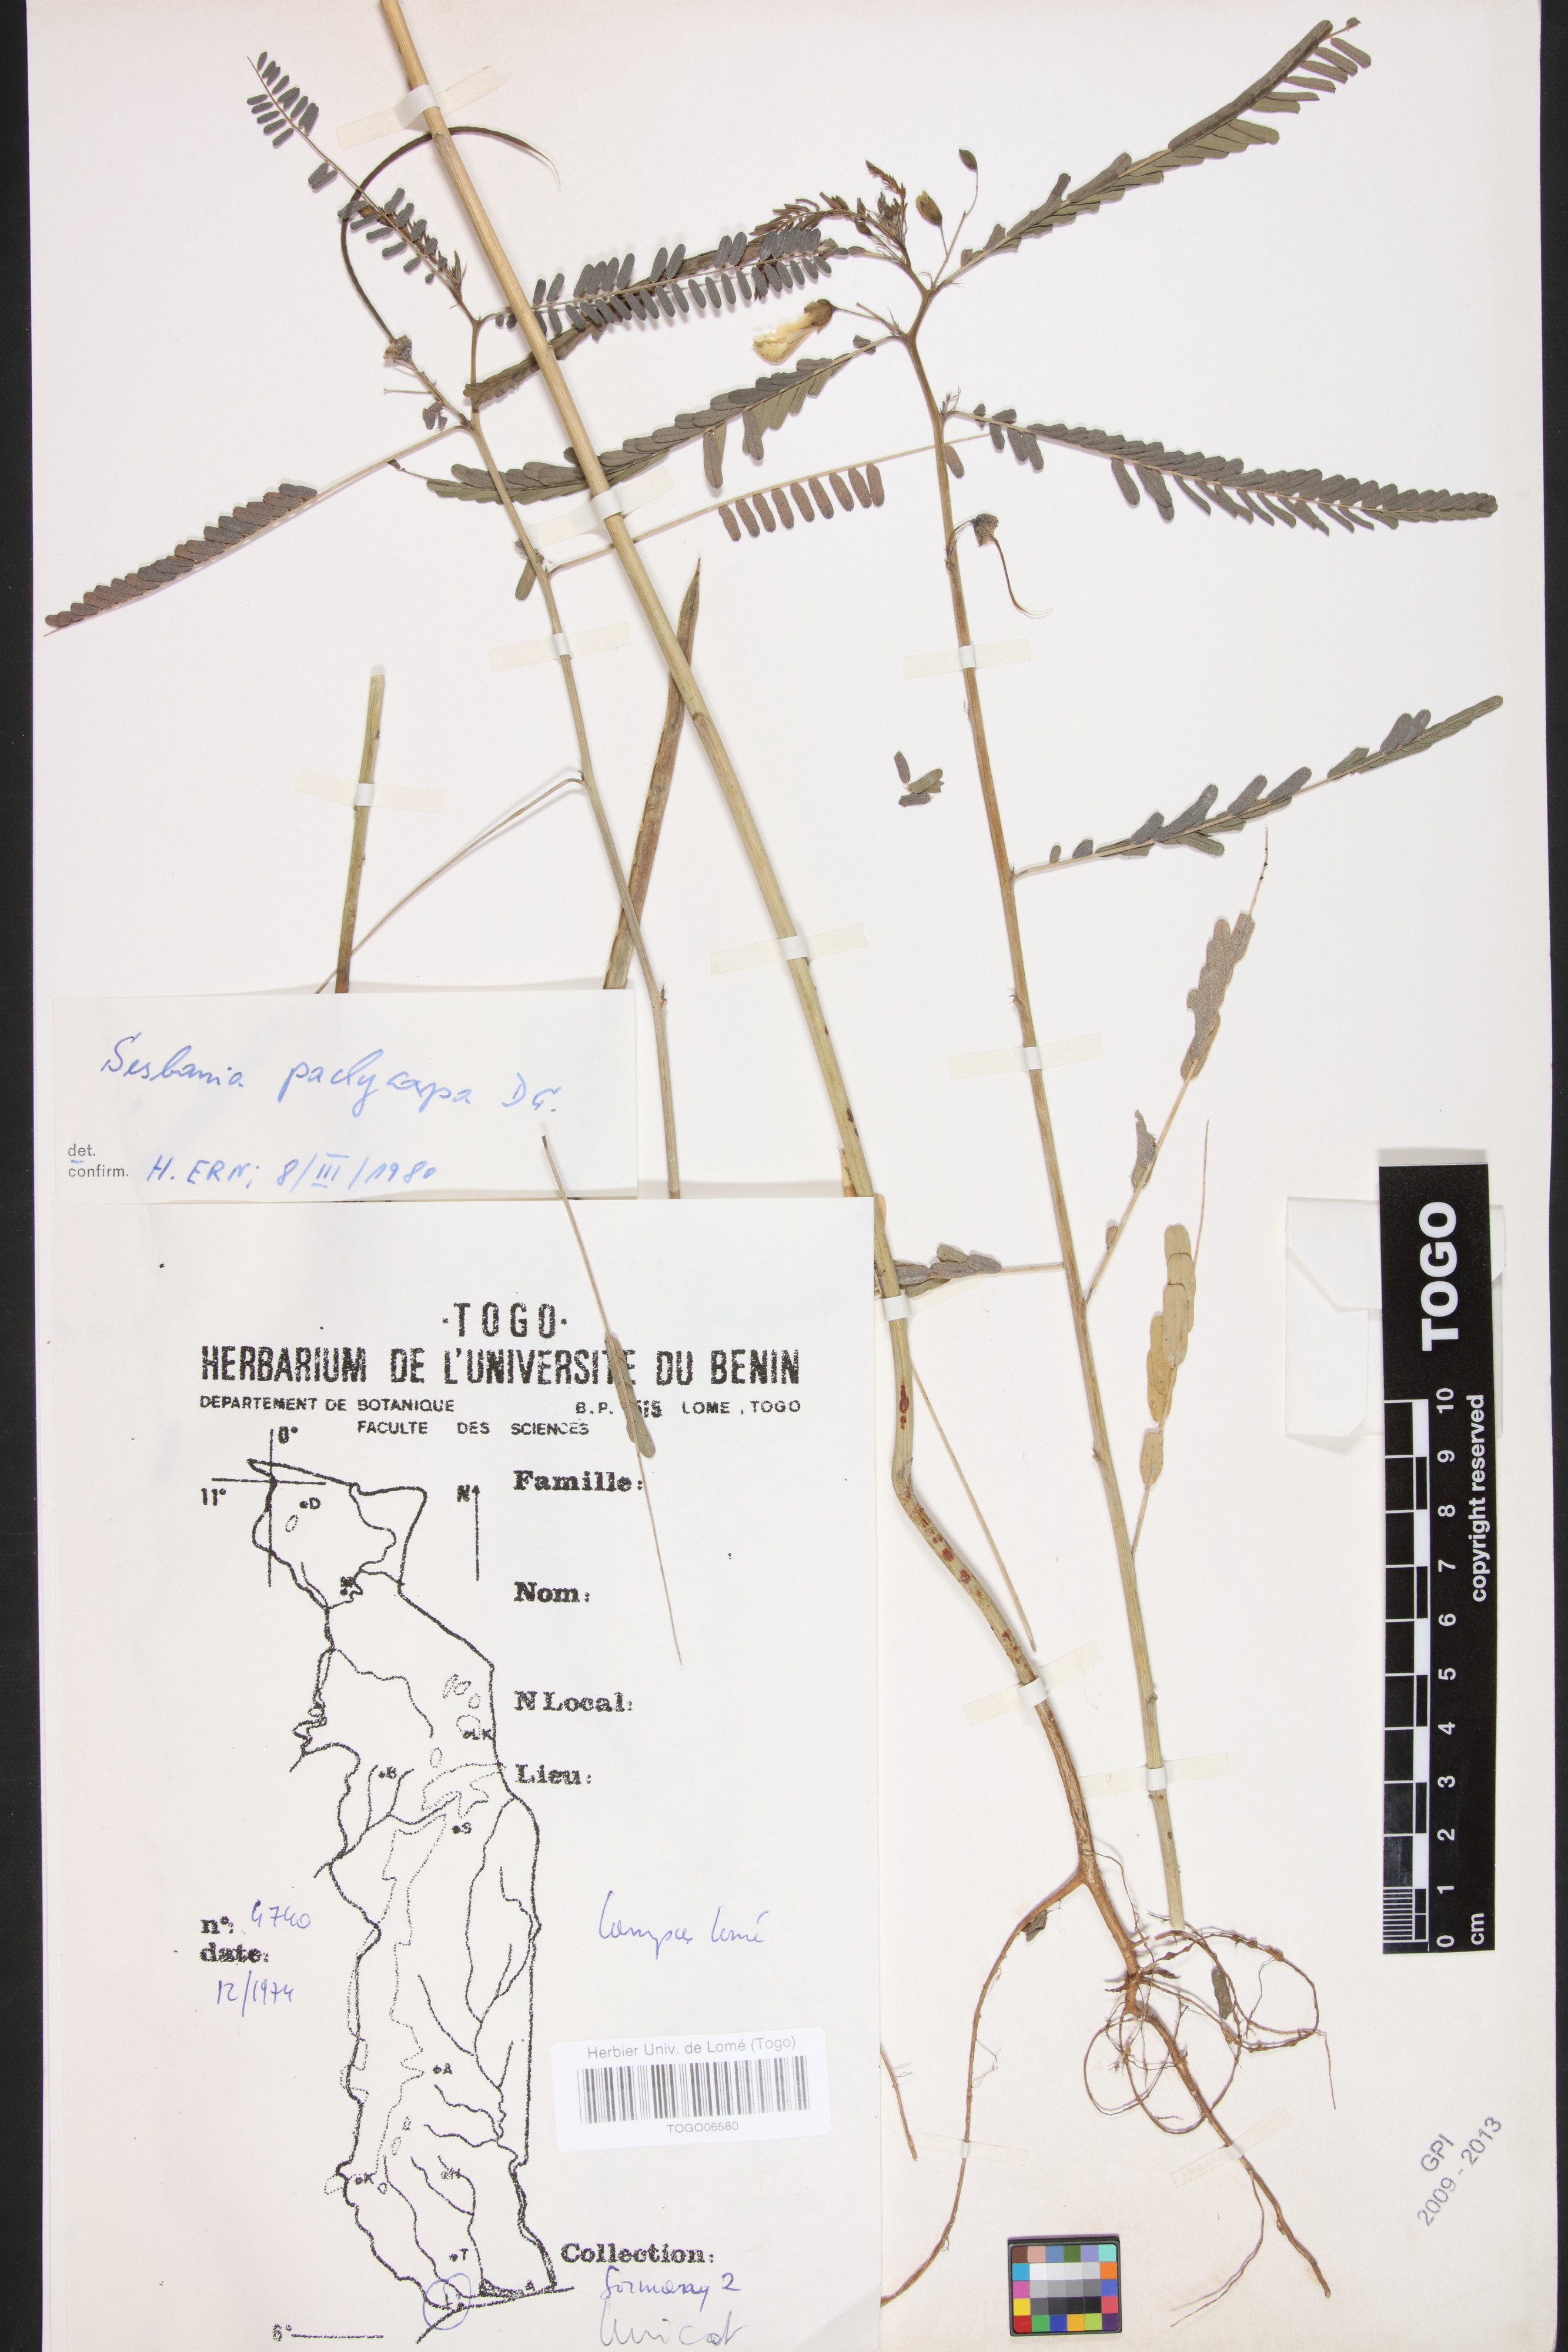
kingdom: Plantae
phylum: Tracheophyta
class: Magnoliopsida
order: Fabales
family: Fabaceae
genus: Sesbania
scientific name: Sesbania pachycarpa
